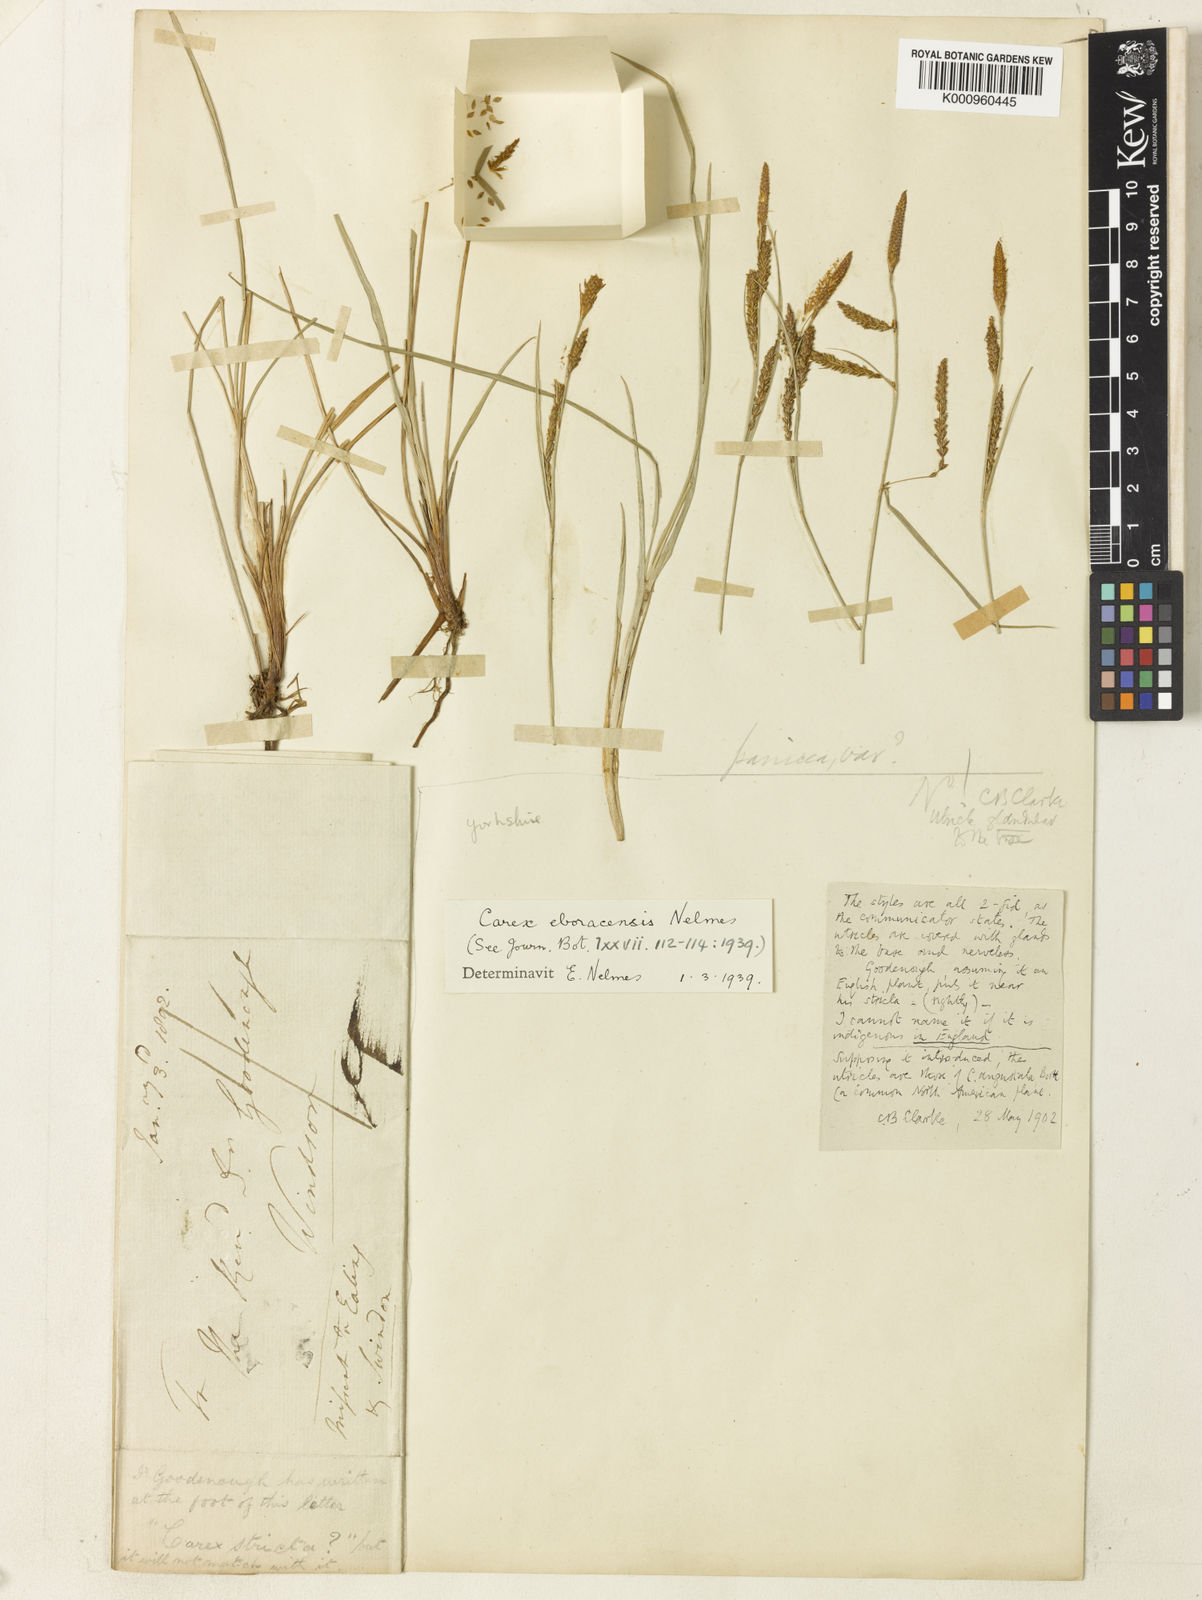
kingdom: Plantae
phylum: Tracheophyta
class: Liliopsida
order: Poales
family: Cyperaceae
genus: Carex
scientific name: Carex nigra
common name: Common sedge
